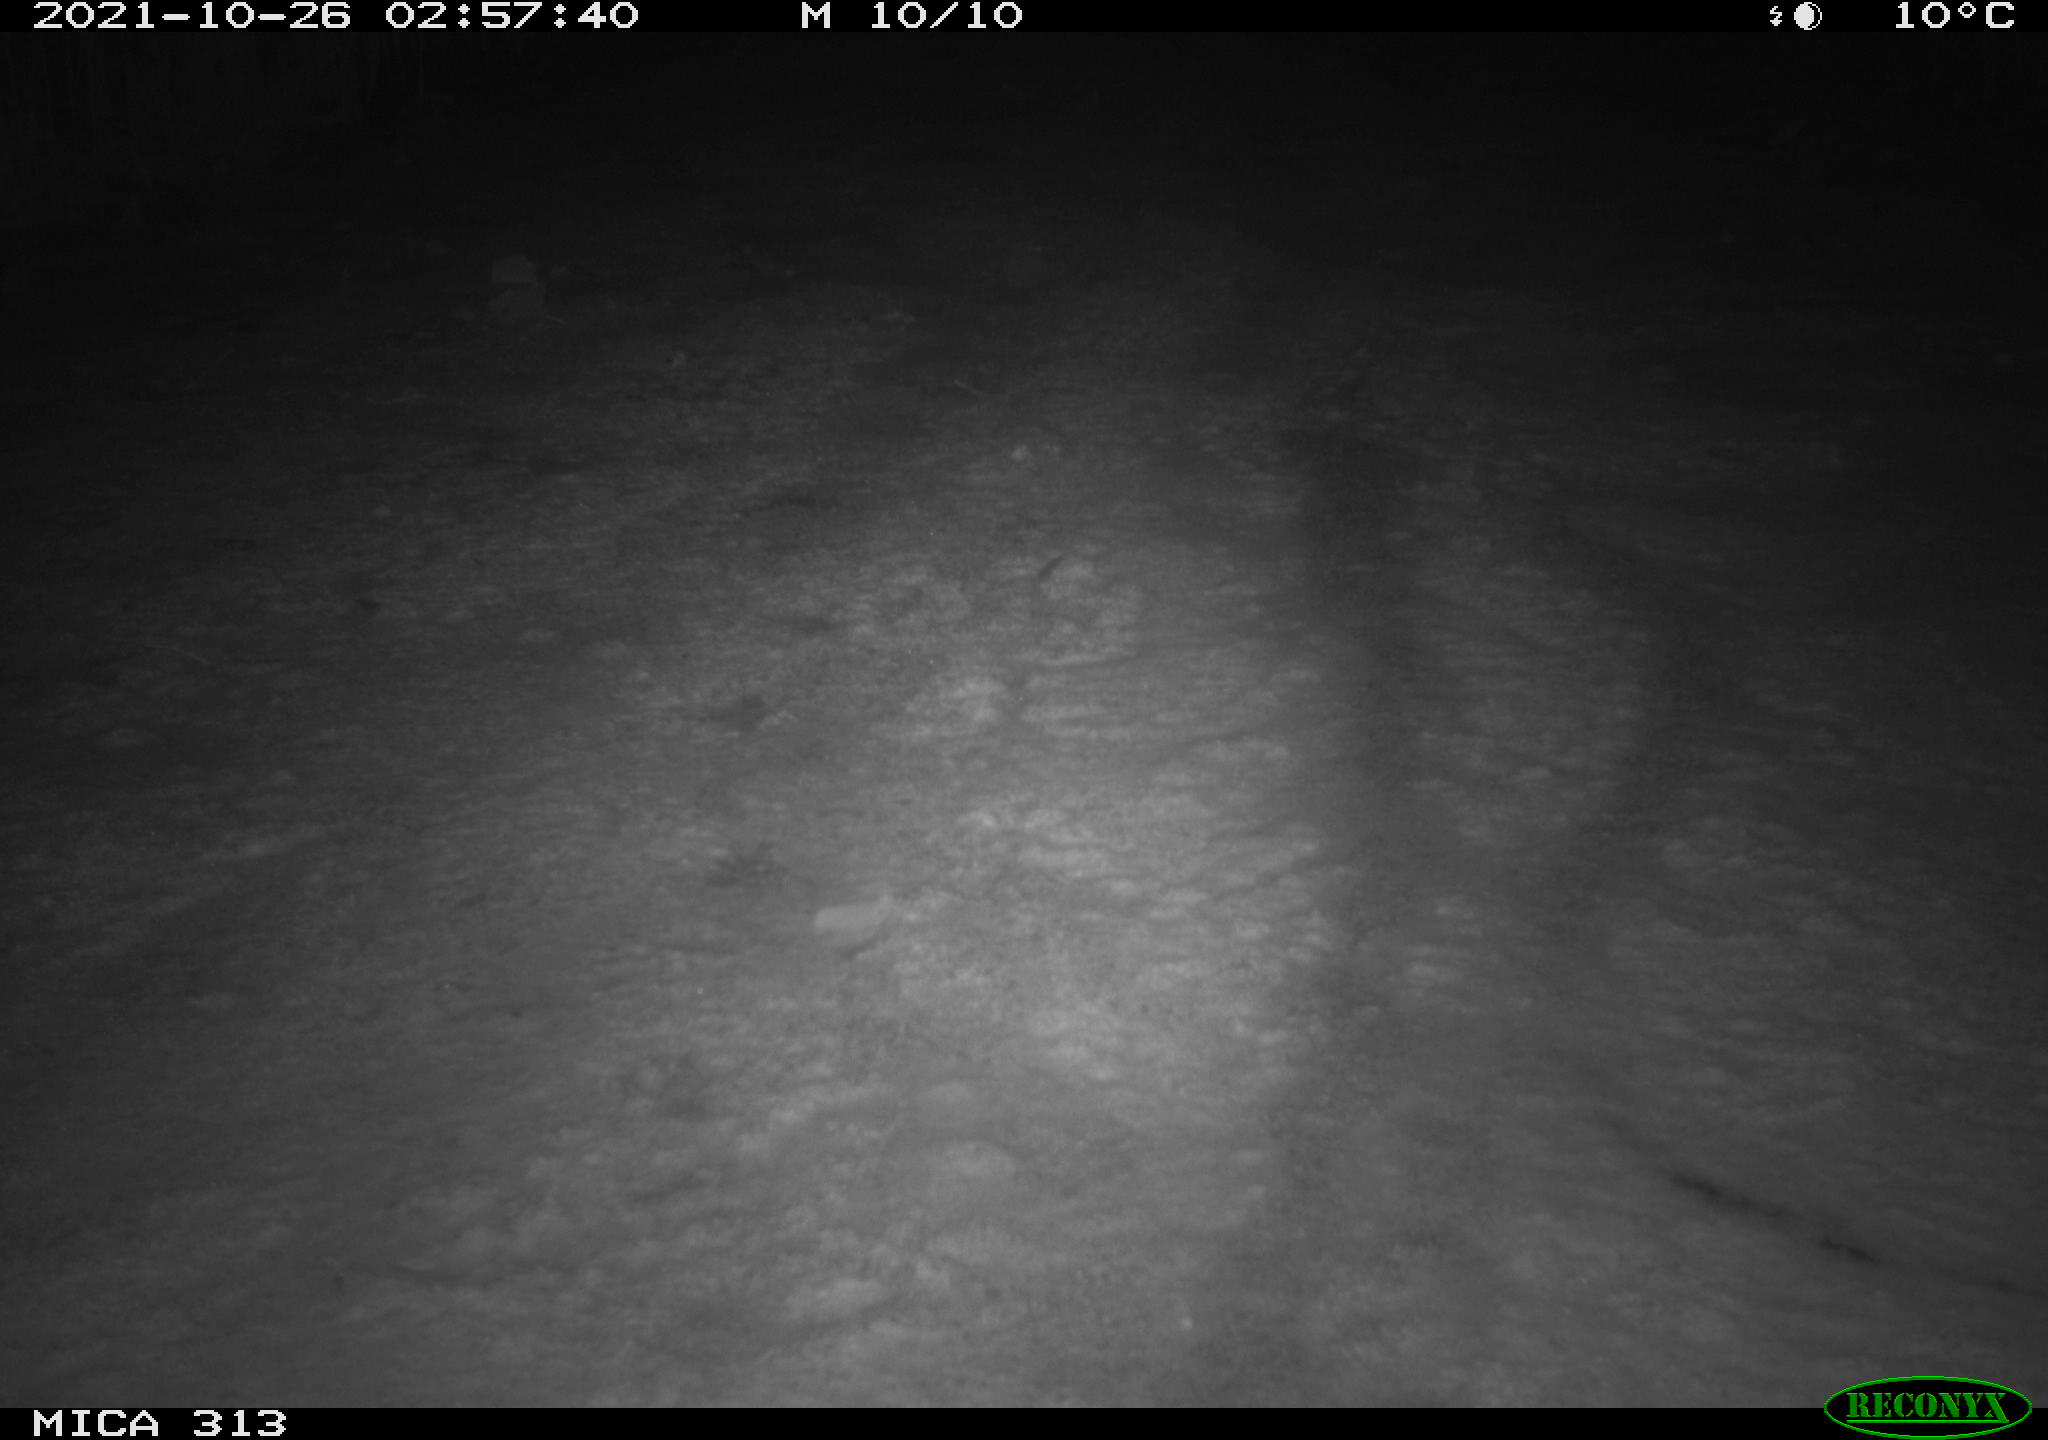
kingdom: Animalia
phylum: Chordata
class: Aves
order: Gruiformes
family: Rallidae
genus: Gallinula
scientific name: Gallinula chloropus
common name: Common moorhen
